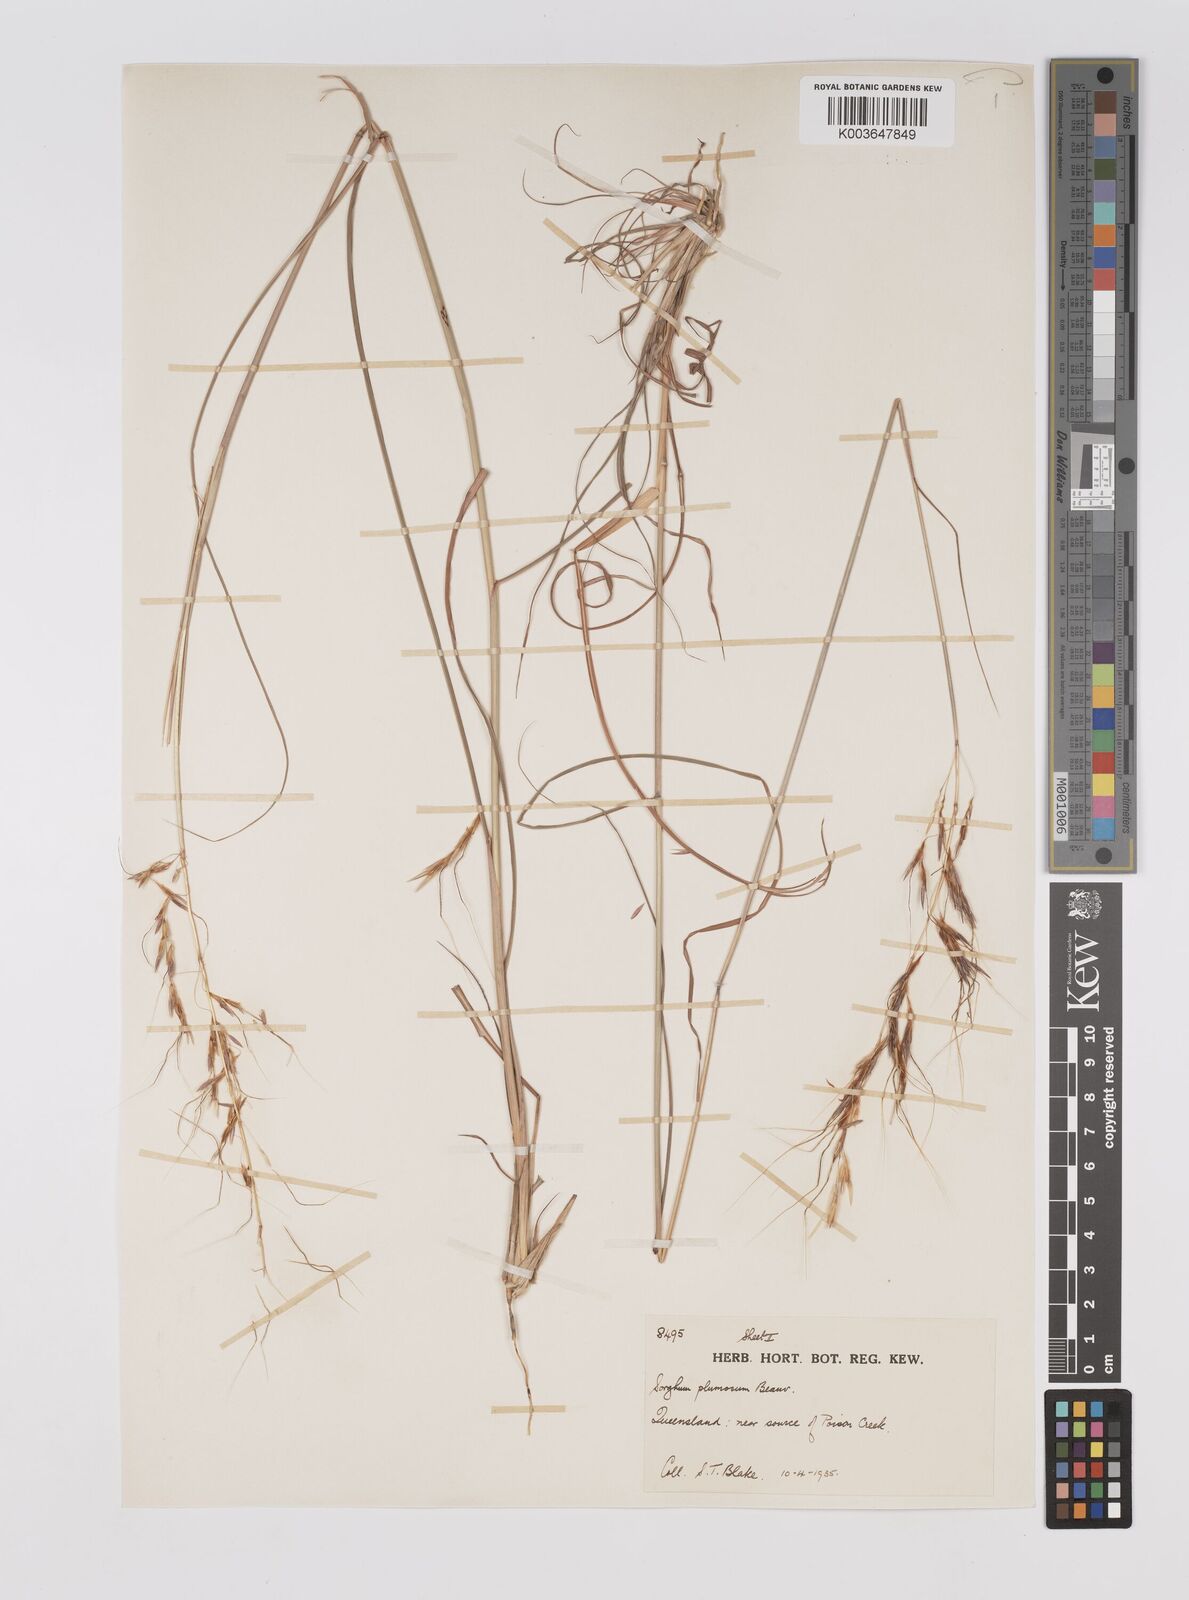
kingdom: Plantae
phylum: Tracheophyta
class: Liliopsida
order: Poales
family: Poaceae
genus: Sarga
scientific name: Sarga plumosa
